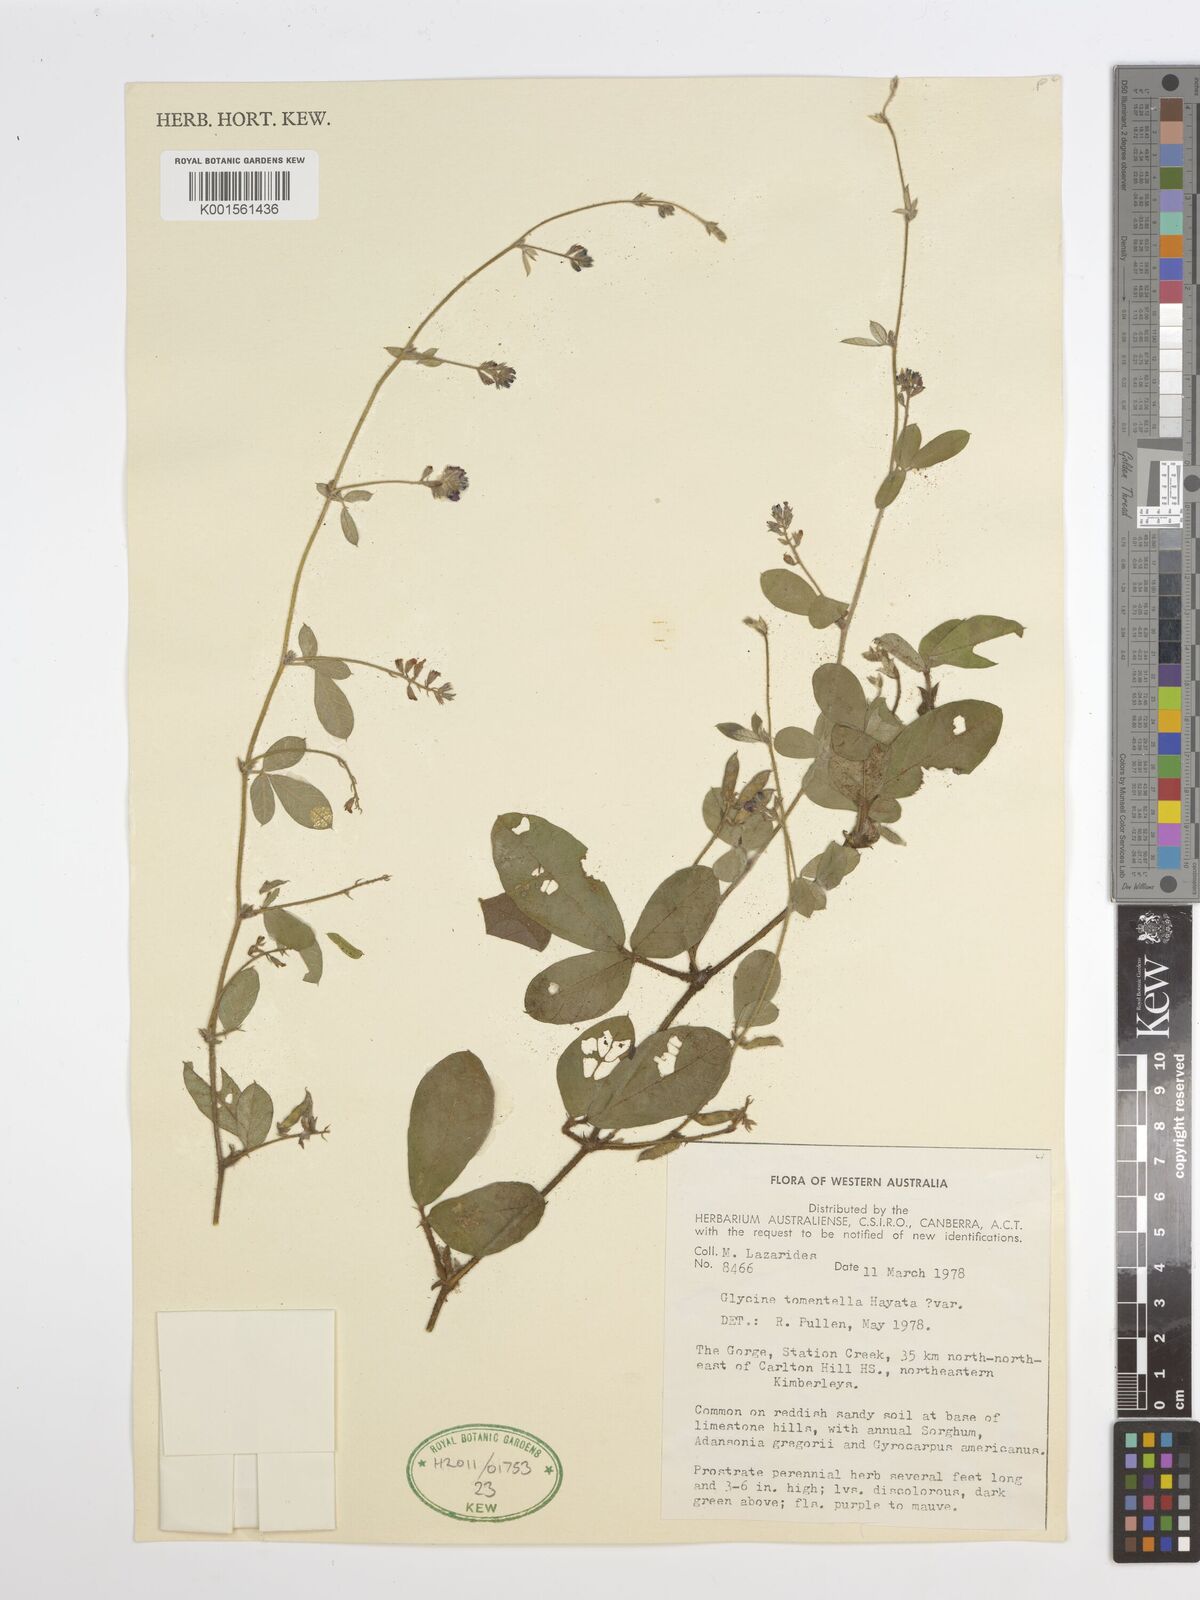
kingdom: Plantae
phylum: Tracheophyta
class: Magnoliopsida
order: Fabales
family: Fabaceae
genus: Glycine
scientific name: Glycine tomentella
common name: Hairy glycine
